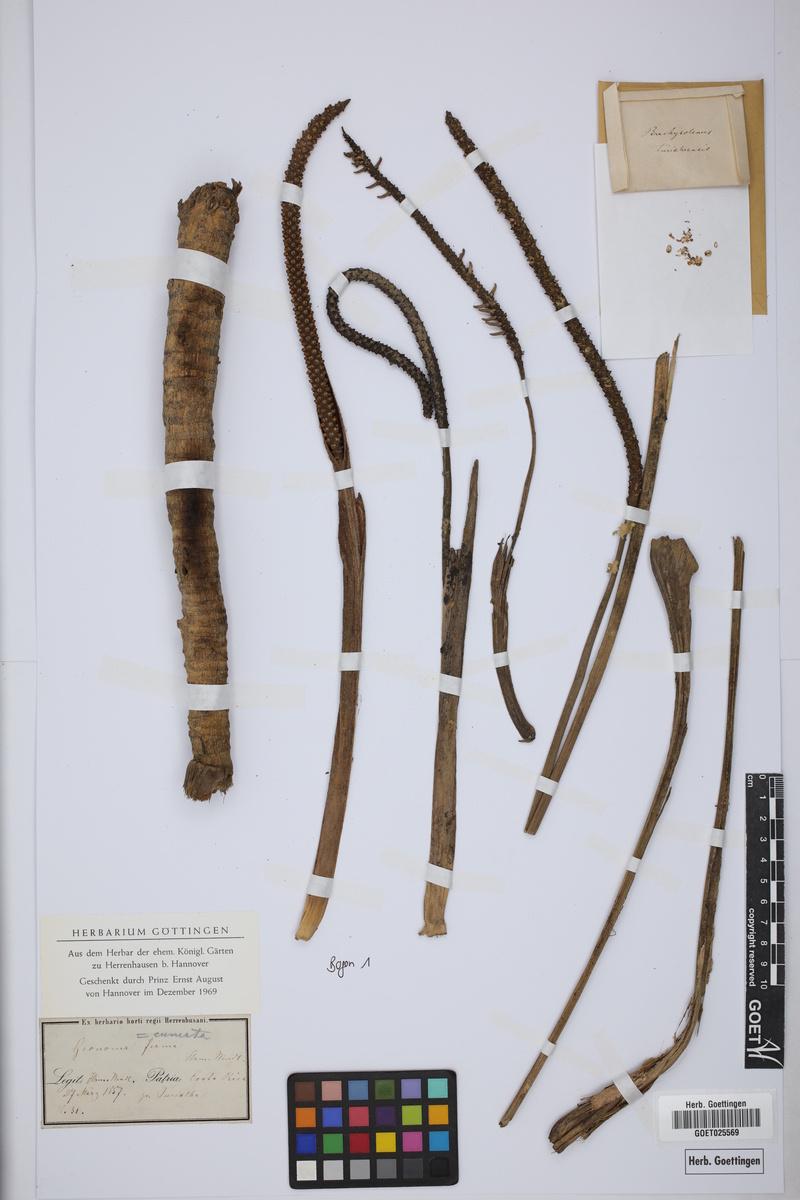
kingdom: Plantae
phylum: Tracheophyta
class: Liliopsida
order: Arecales
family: Arecaceae
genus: Geonoma
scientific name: Geonoma cuneata
